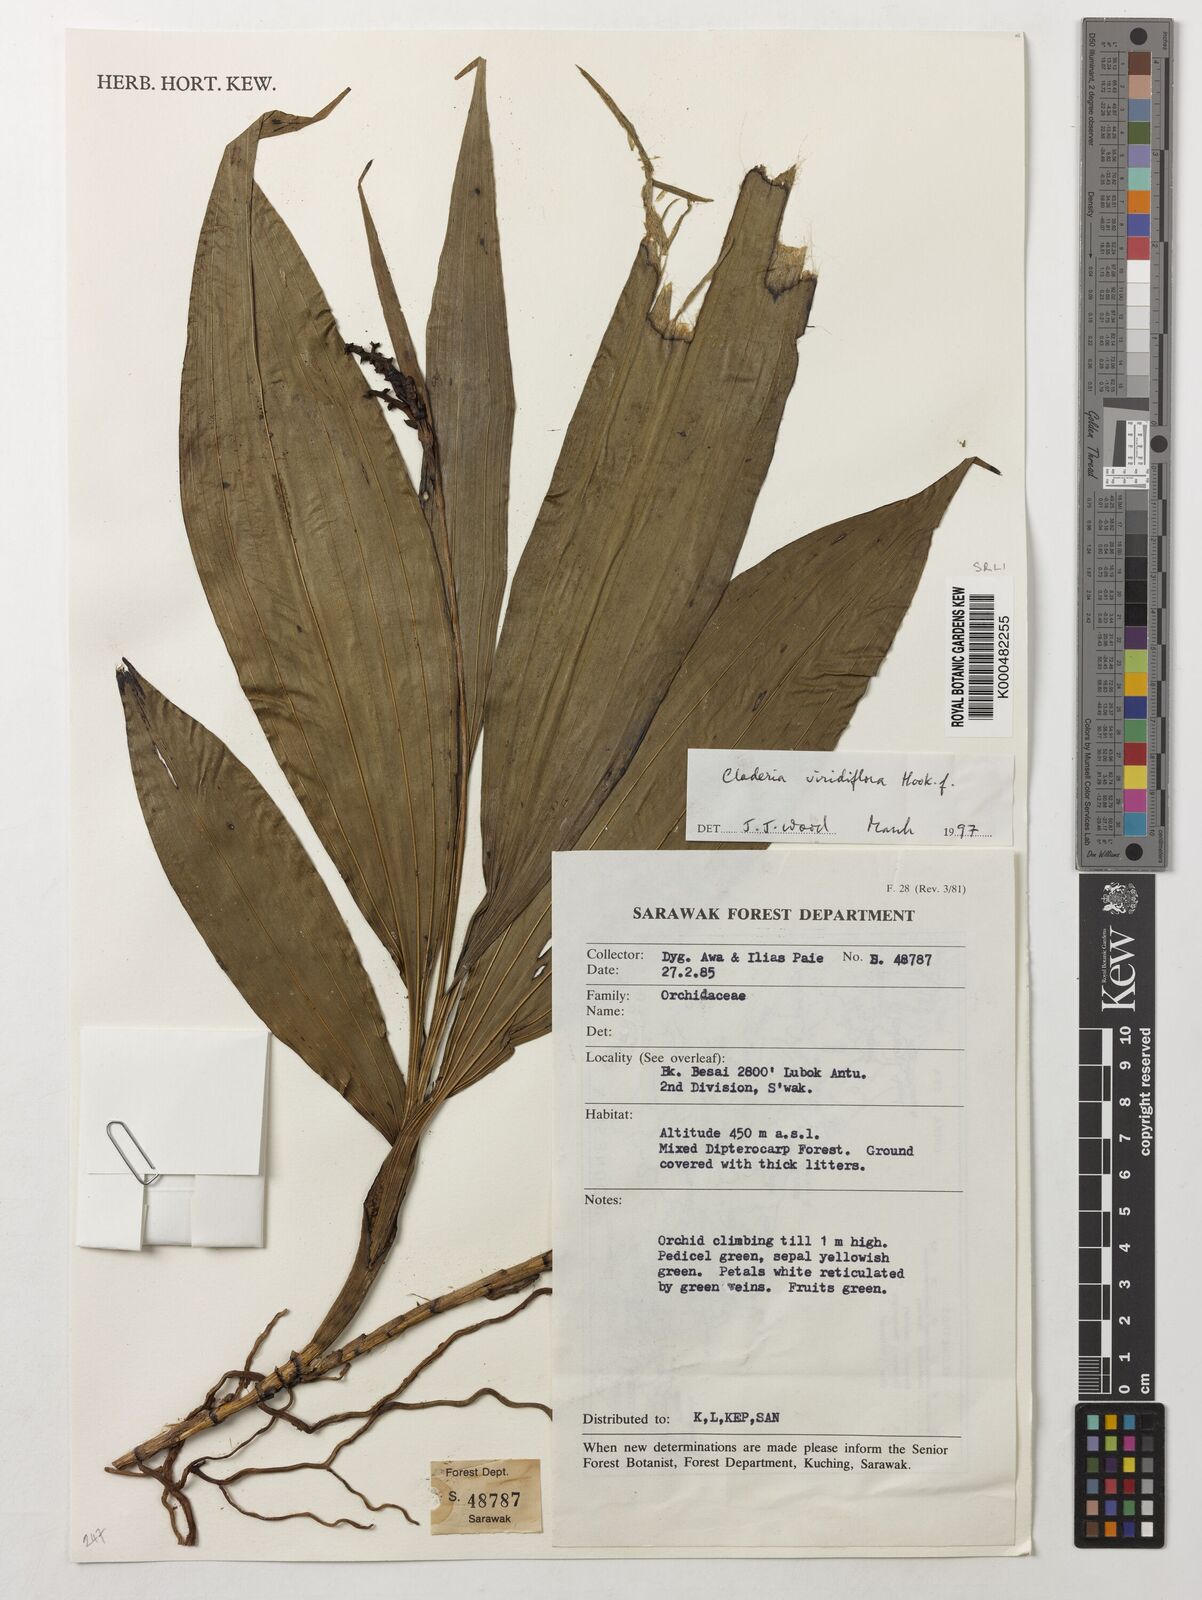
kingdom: Plantae
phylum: Tracheophyta
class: Liliopsida
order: Asparagales
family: Orchidaceae
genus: Claderia
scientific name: Claderia
